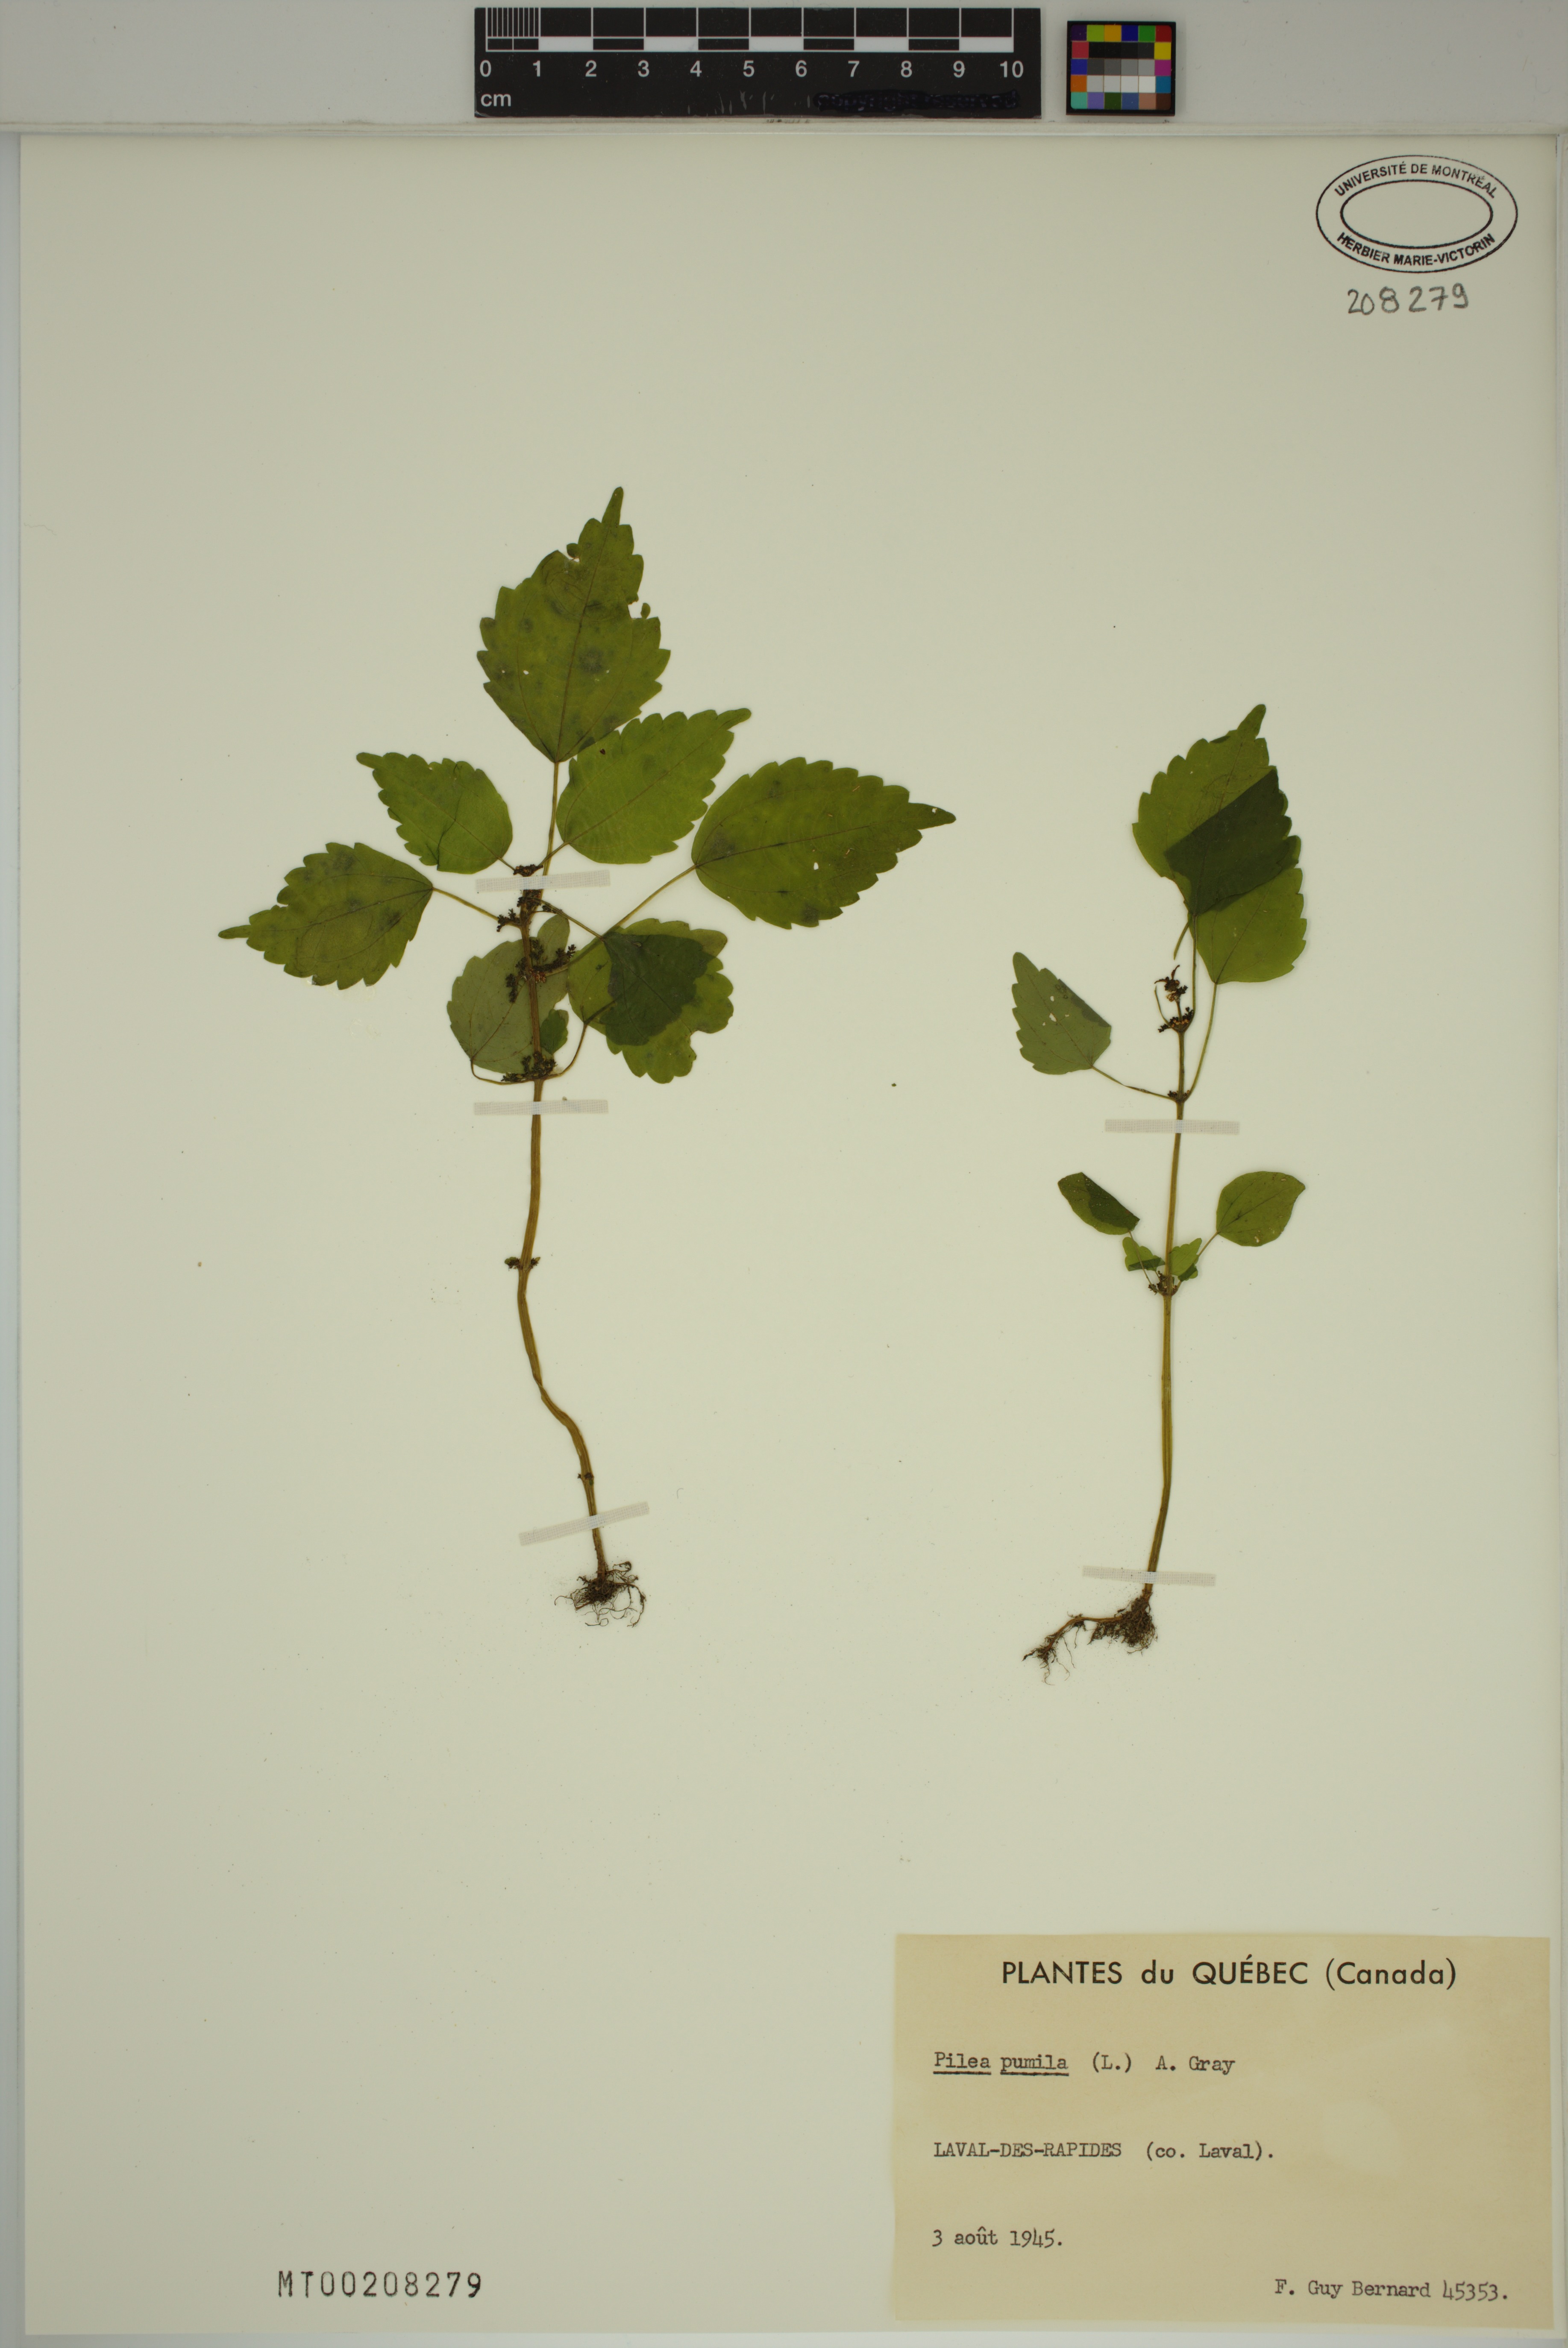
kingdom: Plantae
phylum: Tracheophyta
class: Magnoliopsida
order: Rosales
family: Urticaceae
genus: Pilea
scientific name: Pilea pumila
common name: Clearweed
